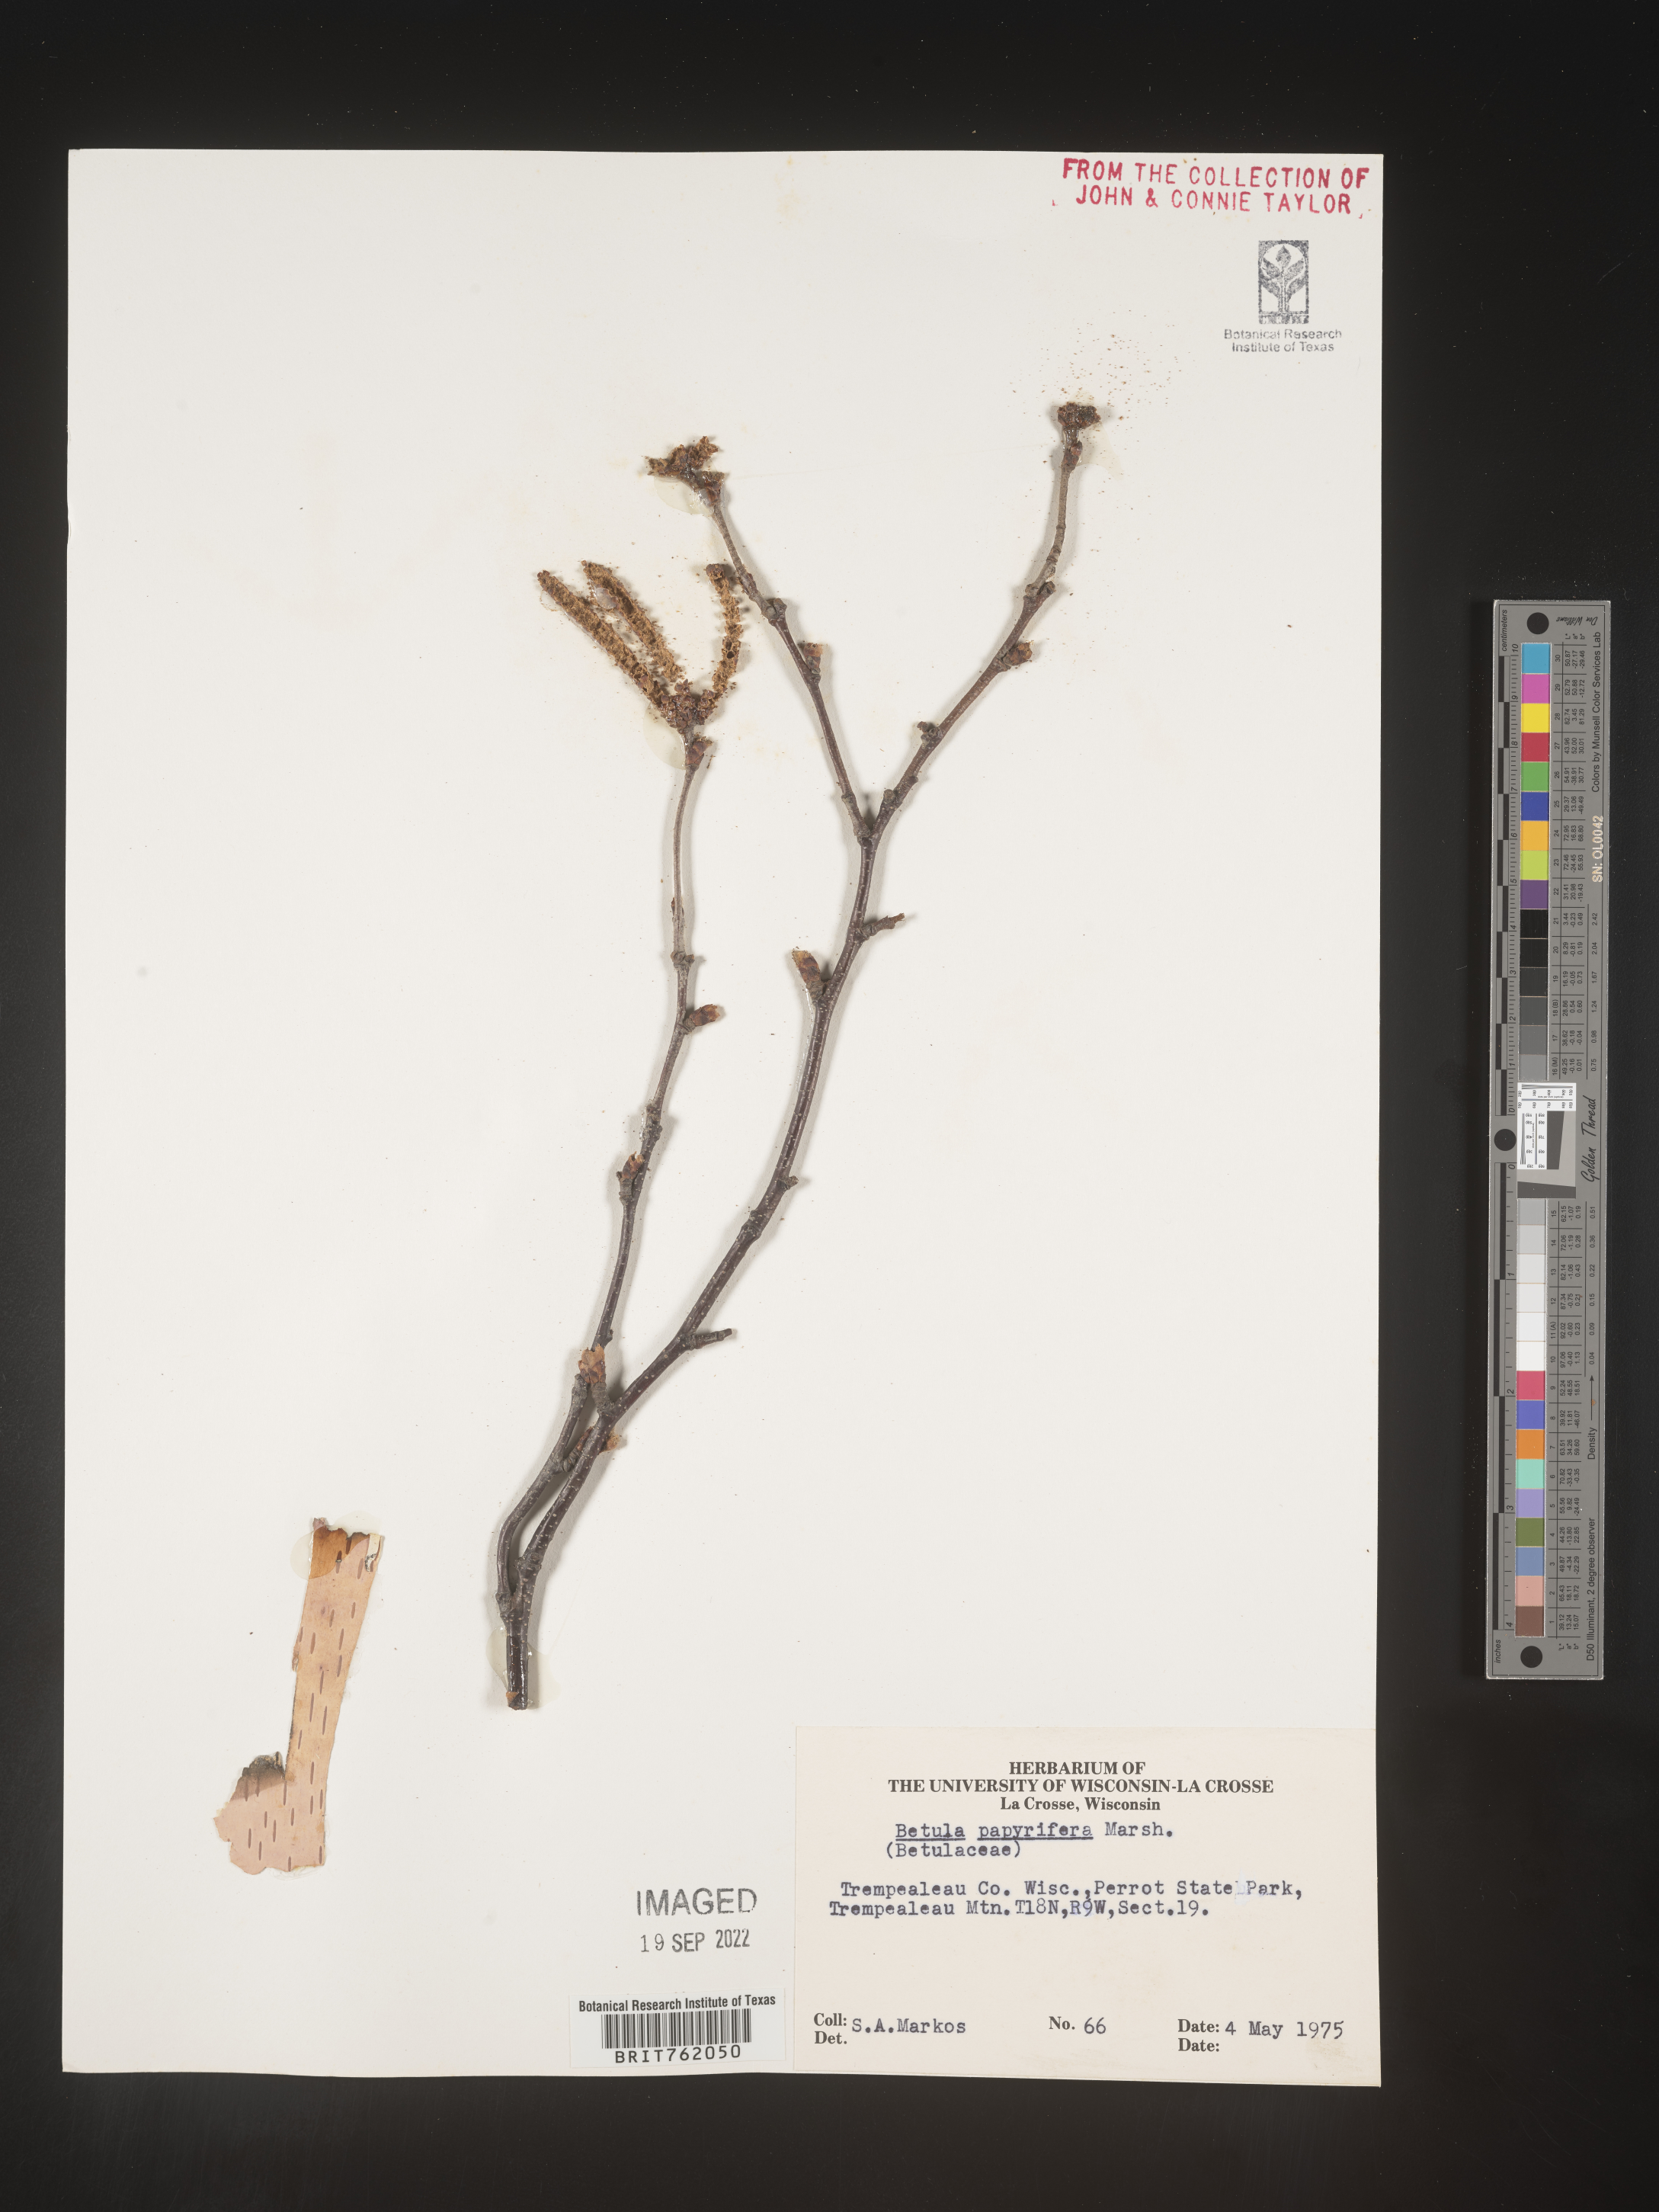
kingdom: Plantae
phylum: Tracheophyta
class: Magnoliopsida
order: Fagales
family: Betulaceae
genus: Betula
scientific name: Betula papyrifera
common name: Paper birch
